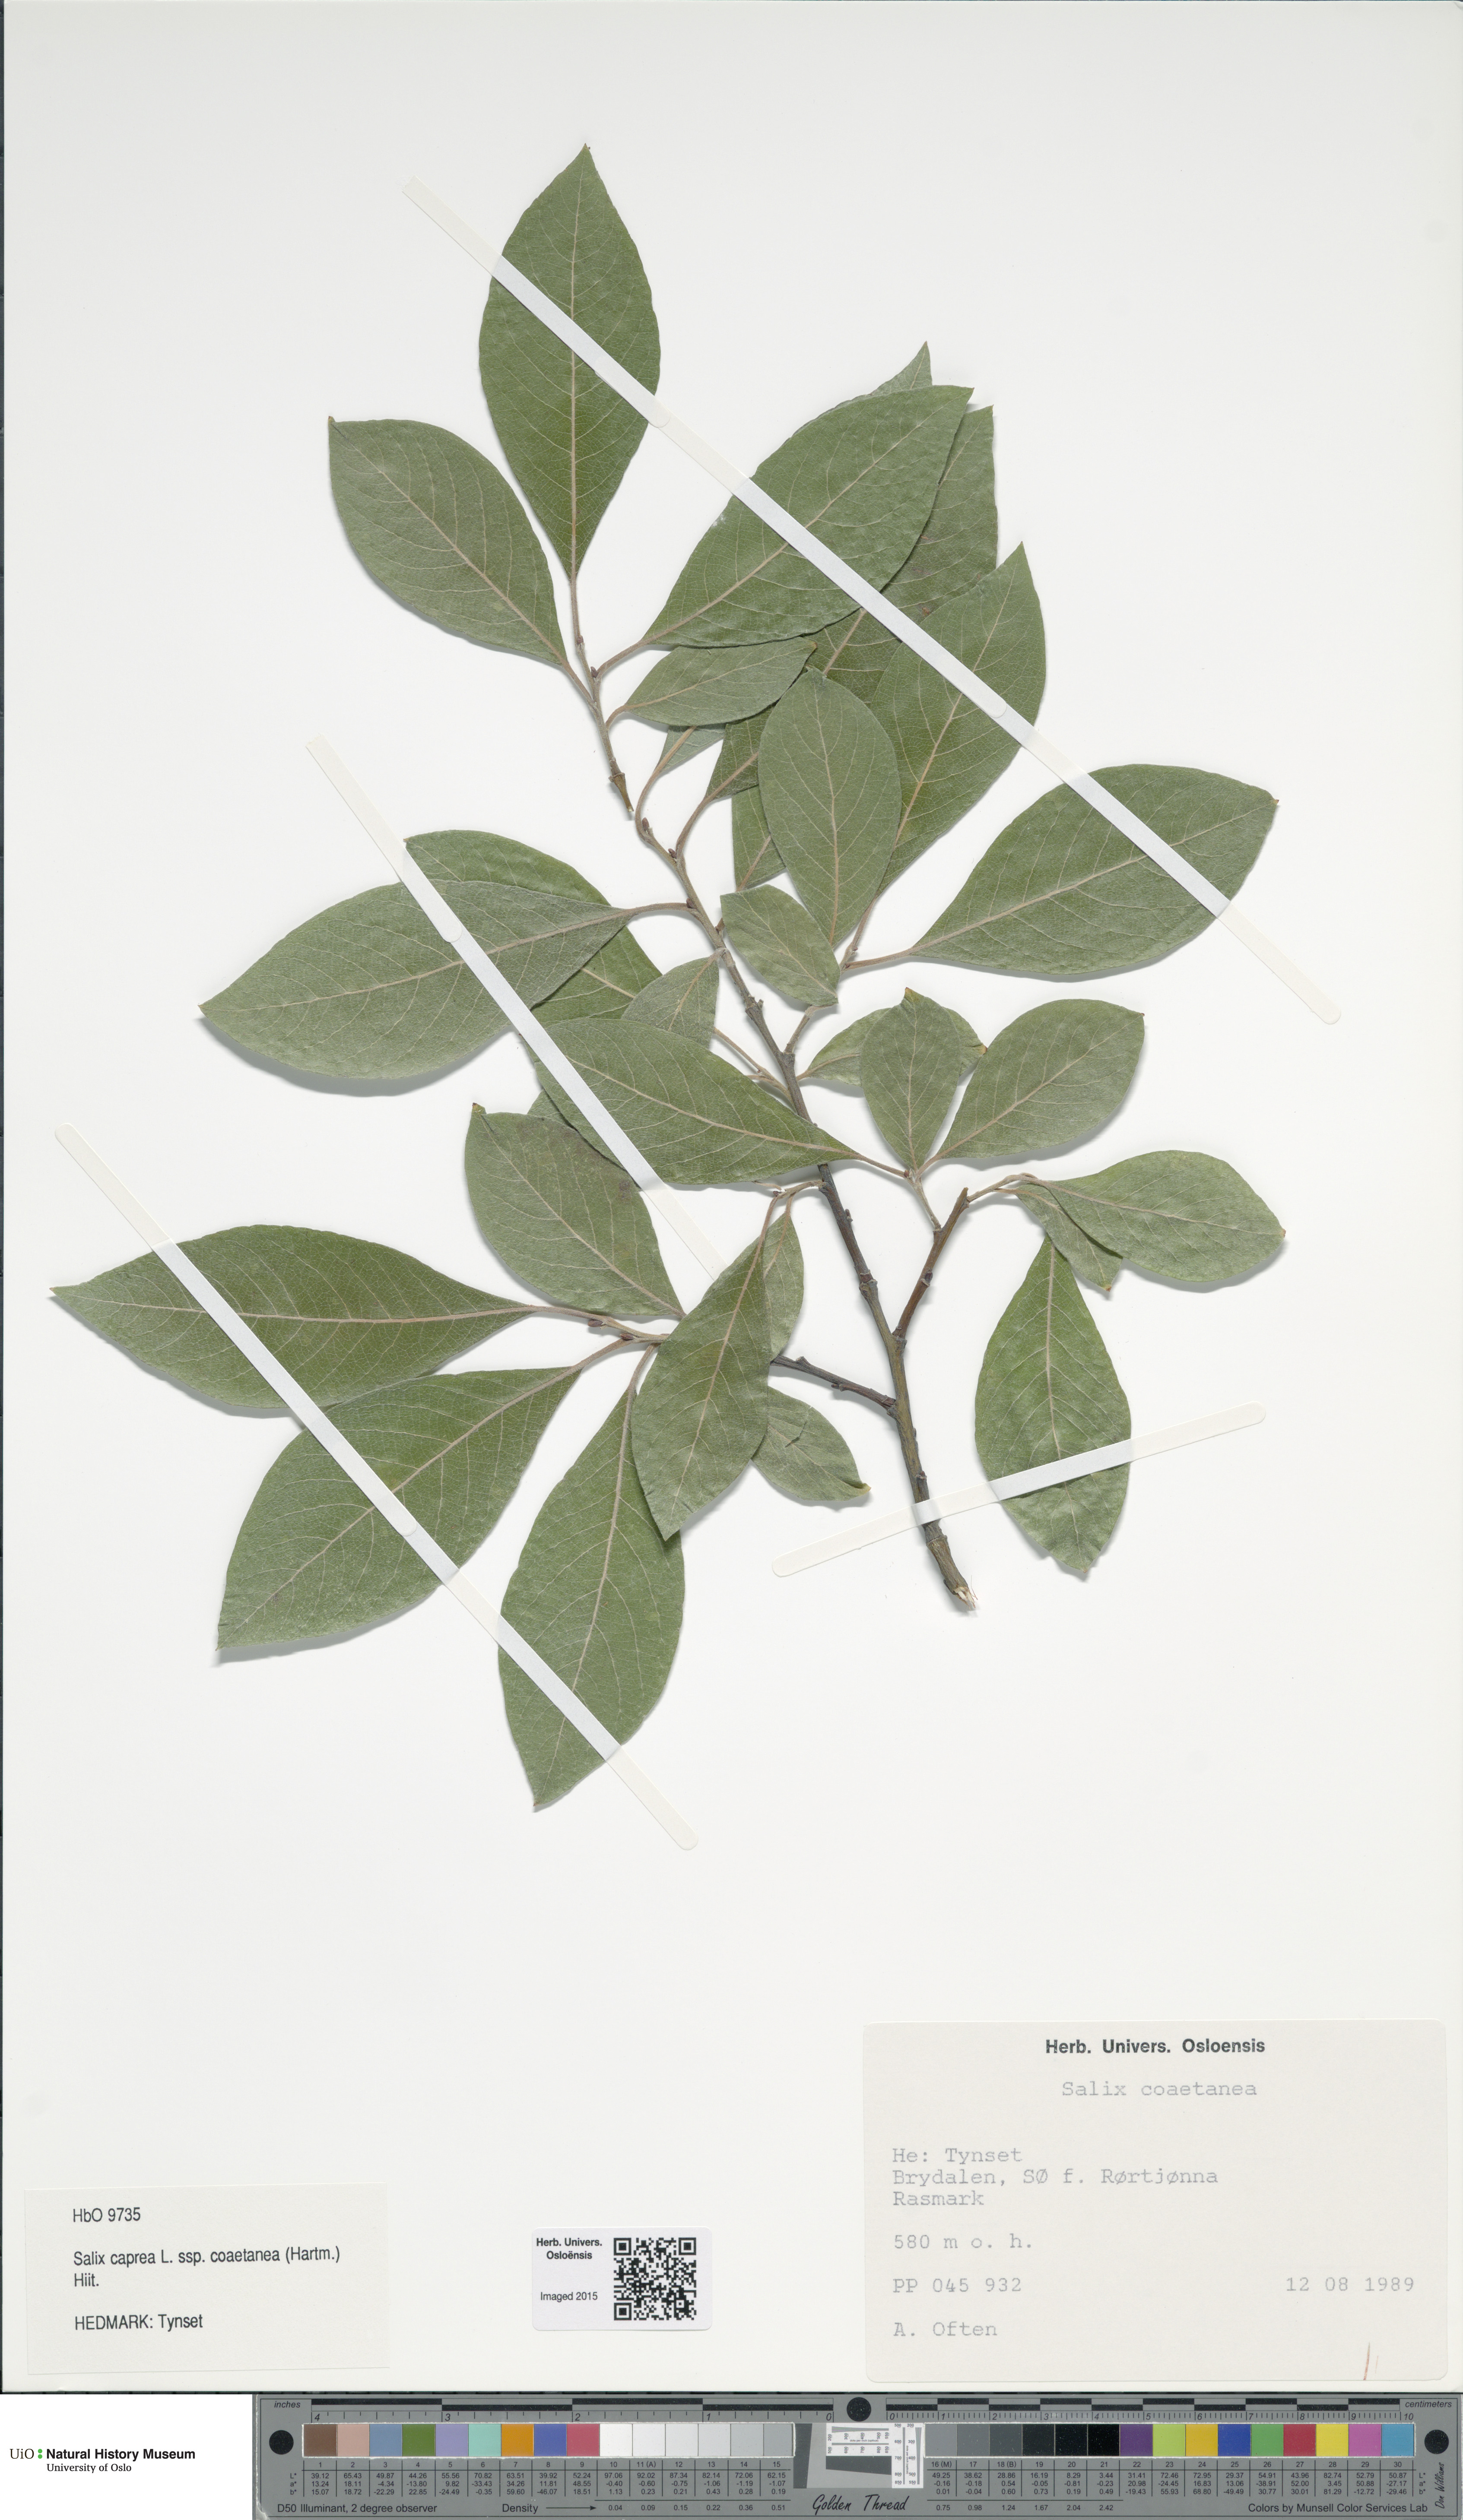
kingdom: Plantae
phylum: Tracheophyta
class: Magnoliopsida
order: Malpighiales
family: Salicaceae
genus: Salix
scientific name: Salix caprea
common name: Goat willow
